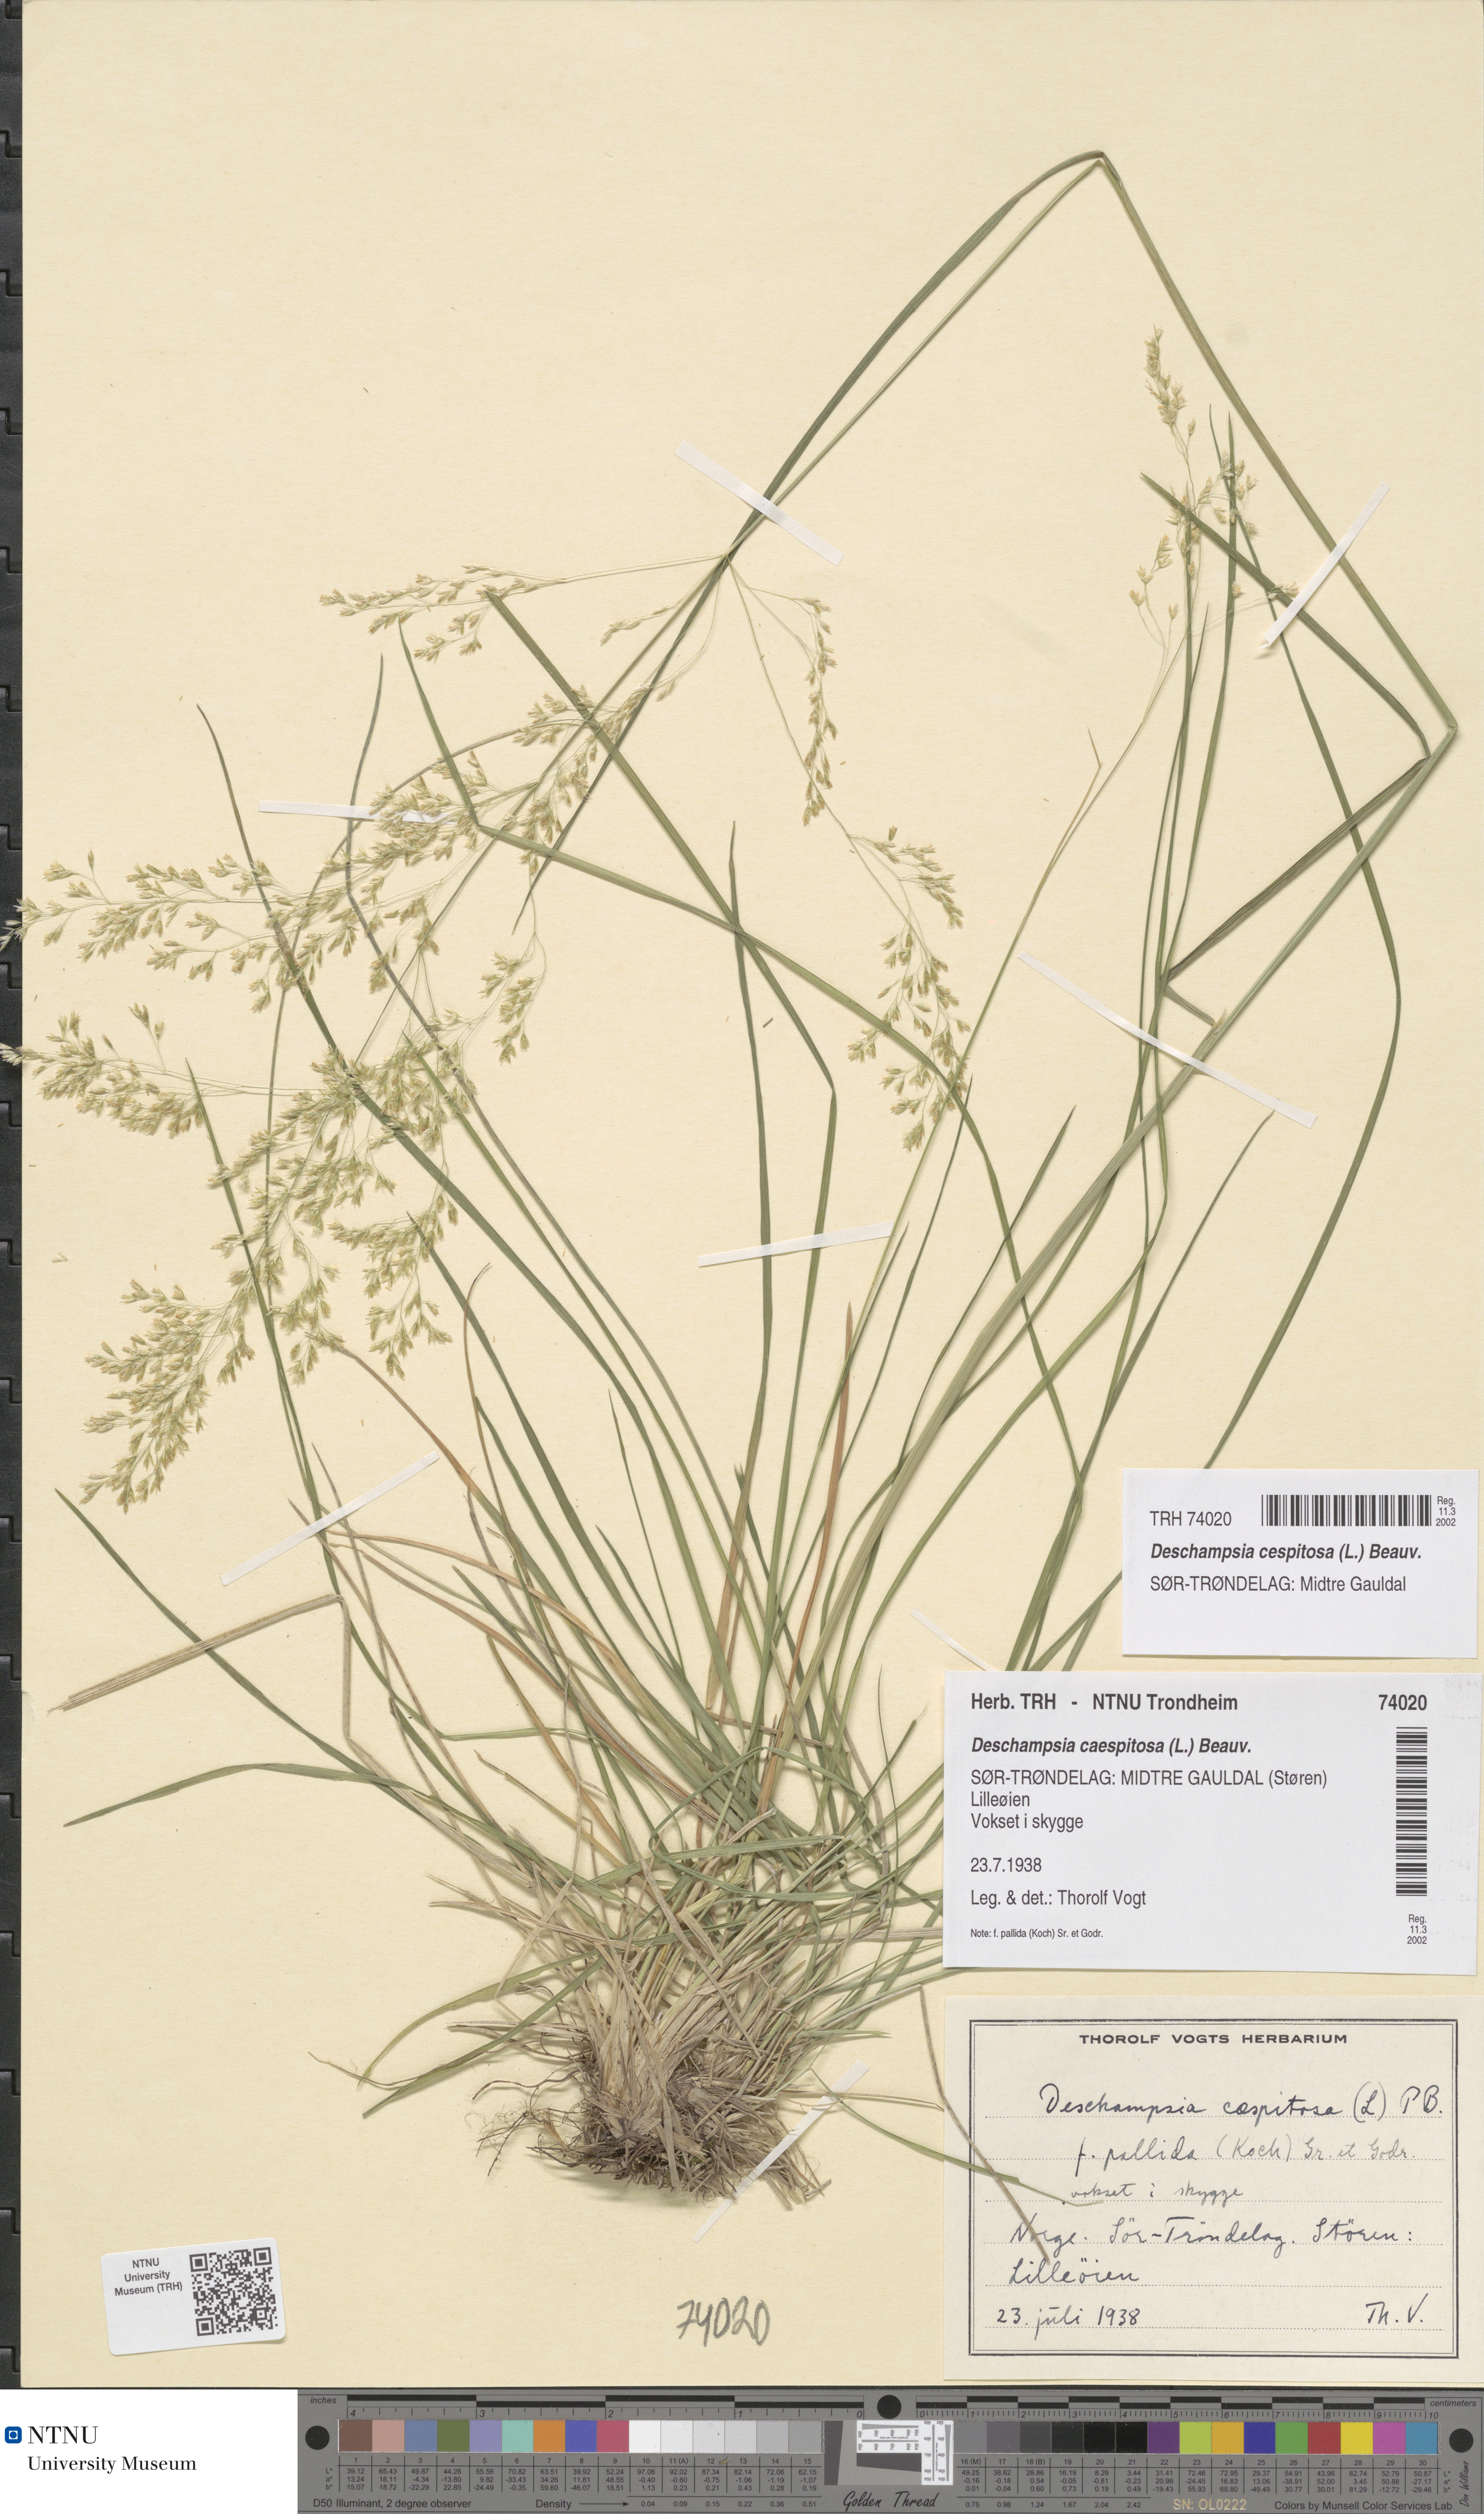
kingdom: Plantae
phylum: Tracheophyta
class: Liliopsida
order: Poales
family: Poaceae
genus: Deschampsia
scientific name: Deschampsia cespitosa
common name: Tufted hair-grass
